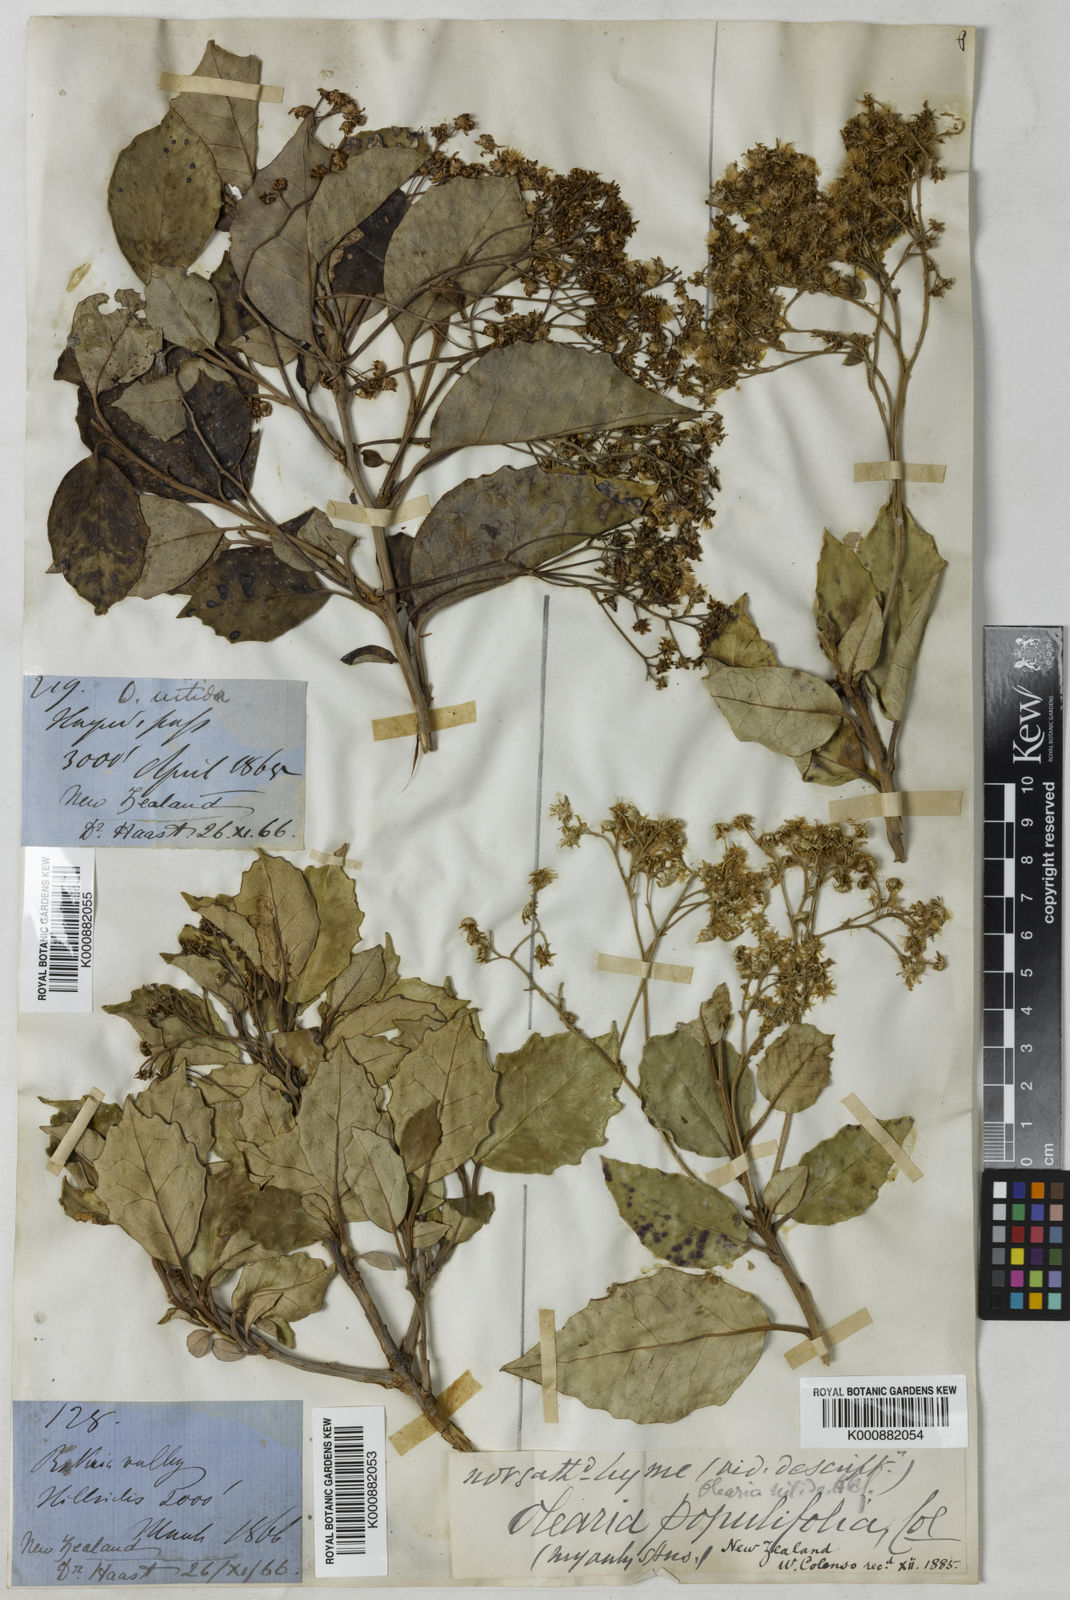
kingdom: Plantae
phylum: Tracheophyta
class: Magnoliopsida
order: Asterales
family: Asteraceae
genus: Olearia
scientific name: Olearia arborescens
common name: Glossy tree daisy
